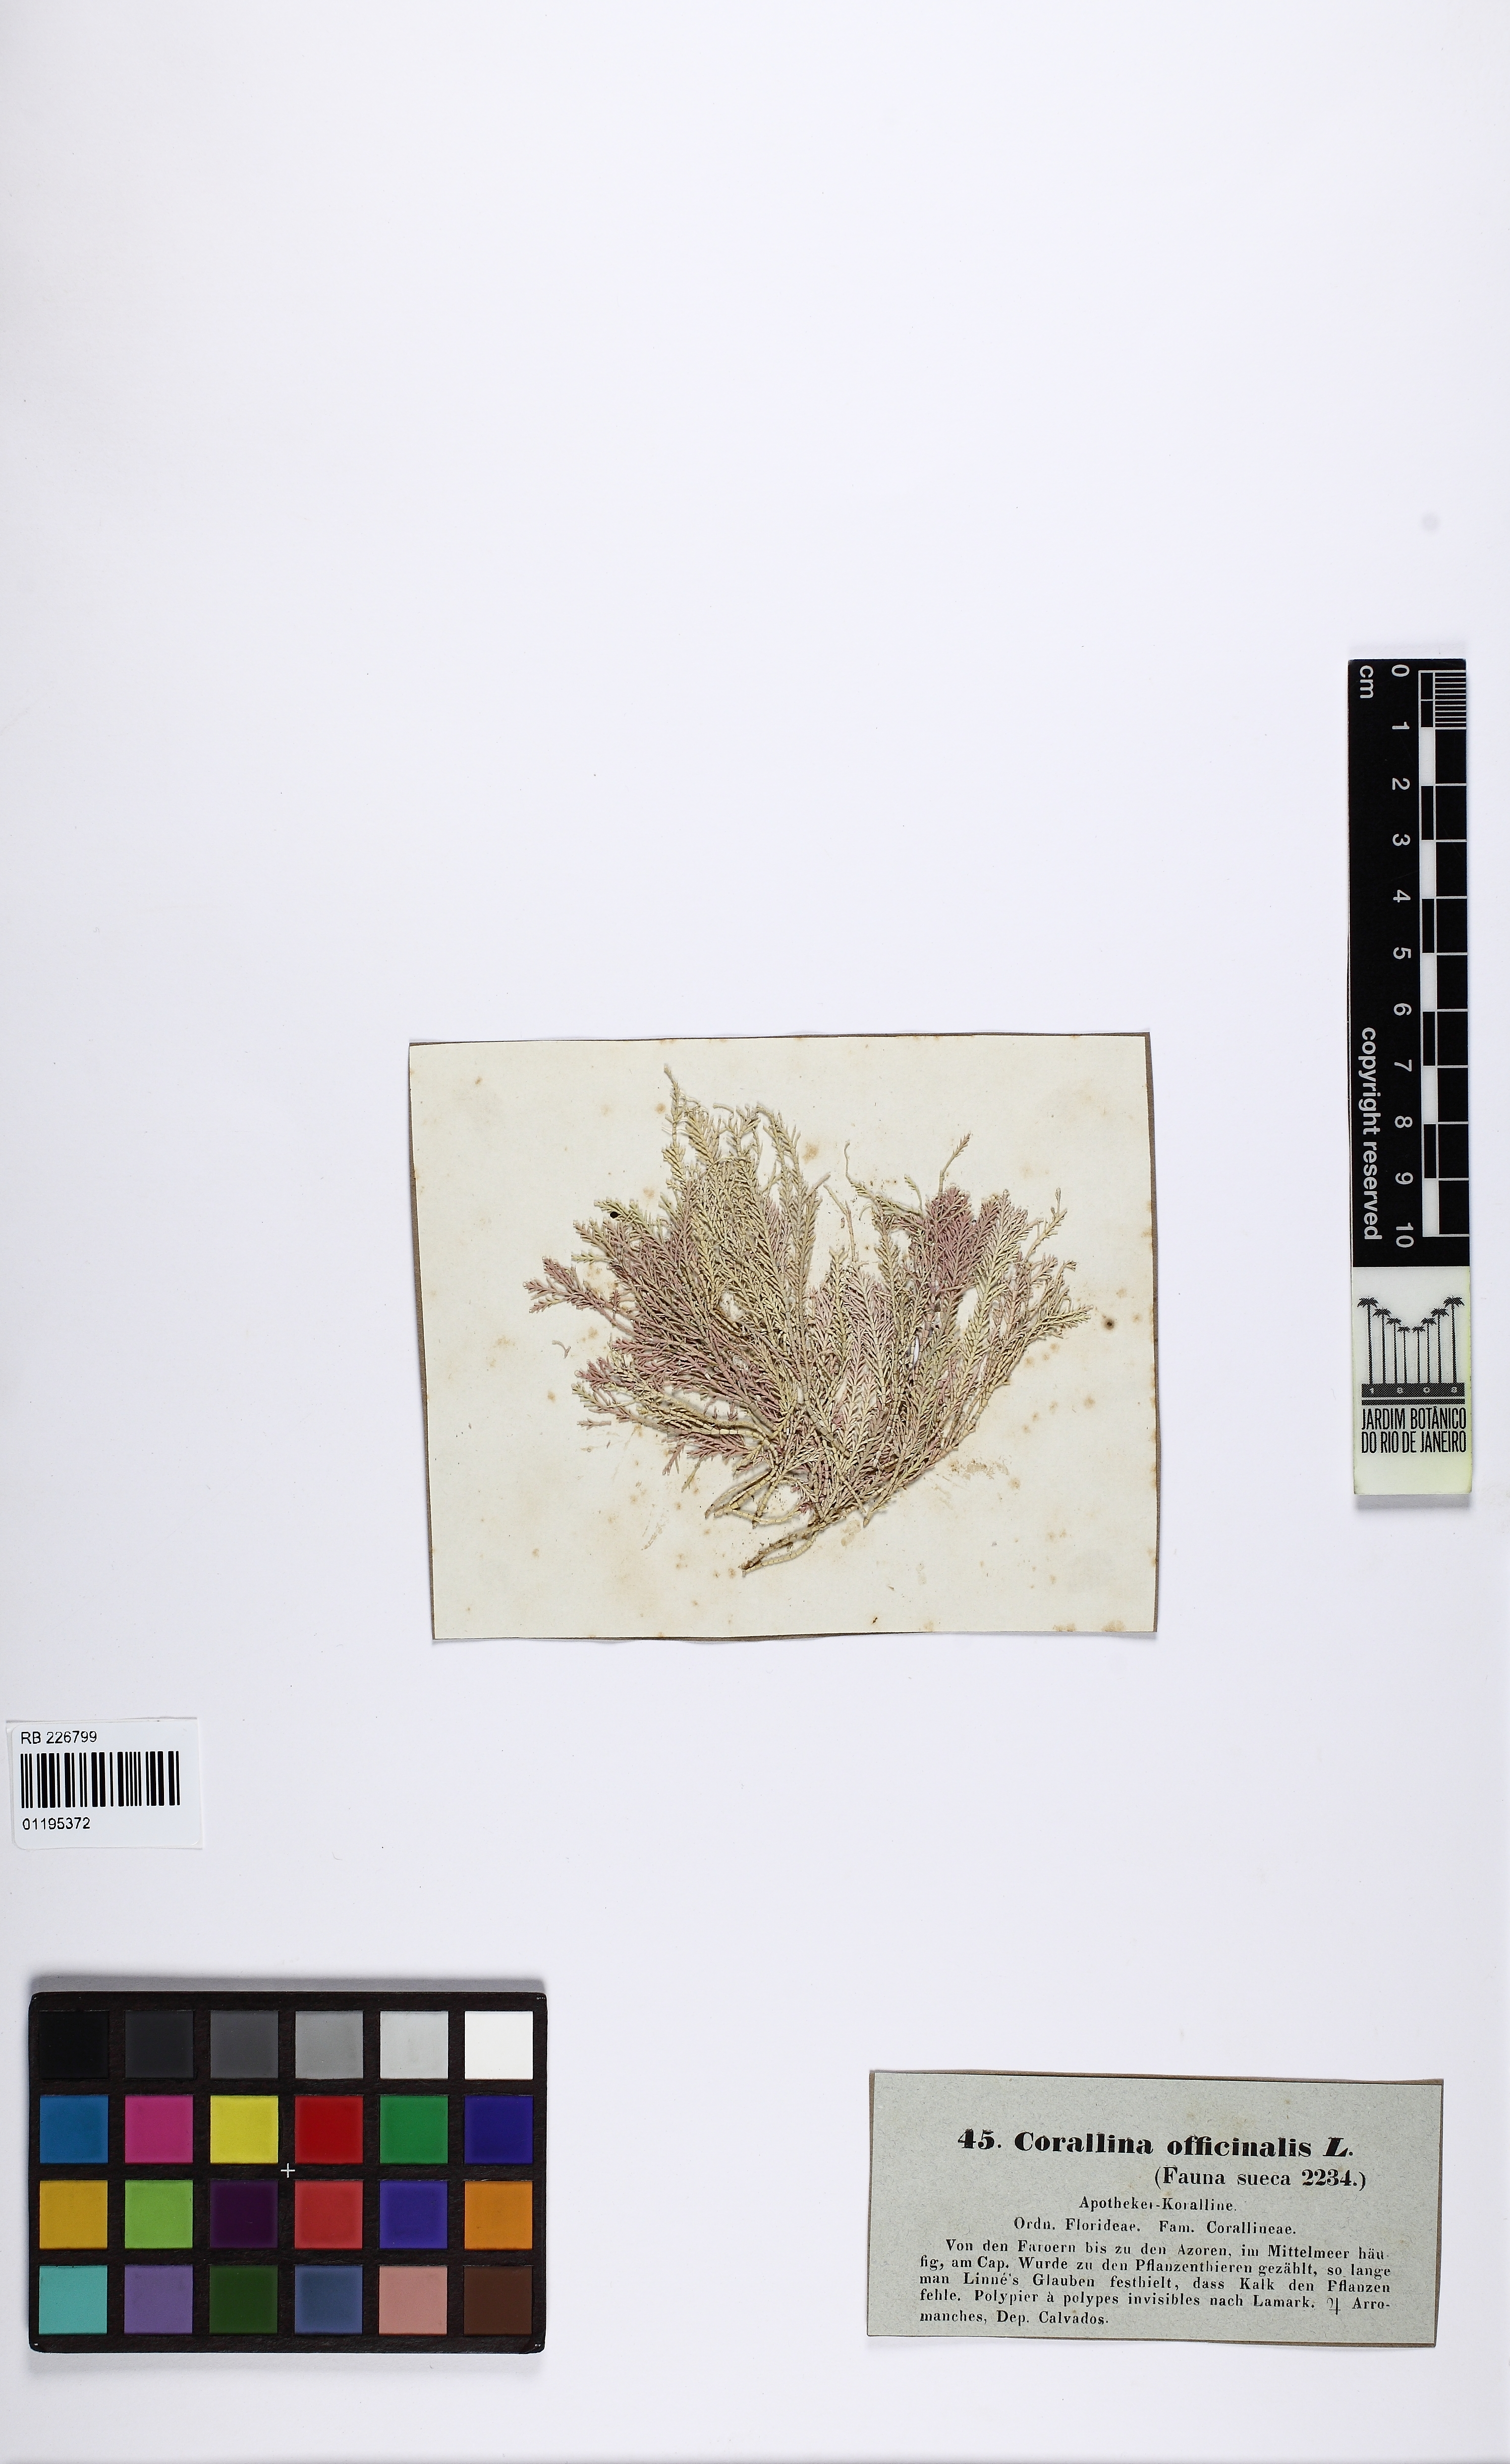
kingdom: Plantae
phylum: Rhodophyta
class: Florideophyceae
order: Corallinales
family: Corallinaceae
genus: Corallina
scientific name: Corallina officinalis
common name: Coral weed
